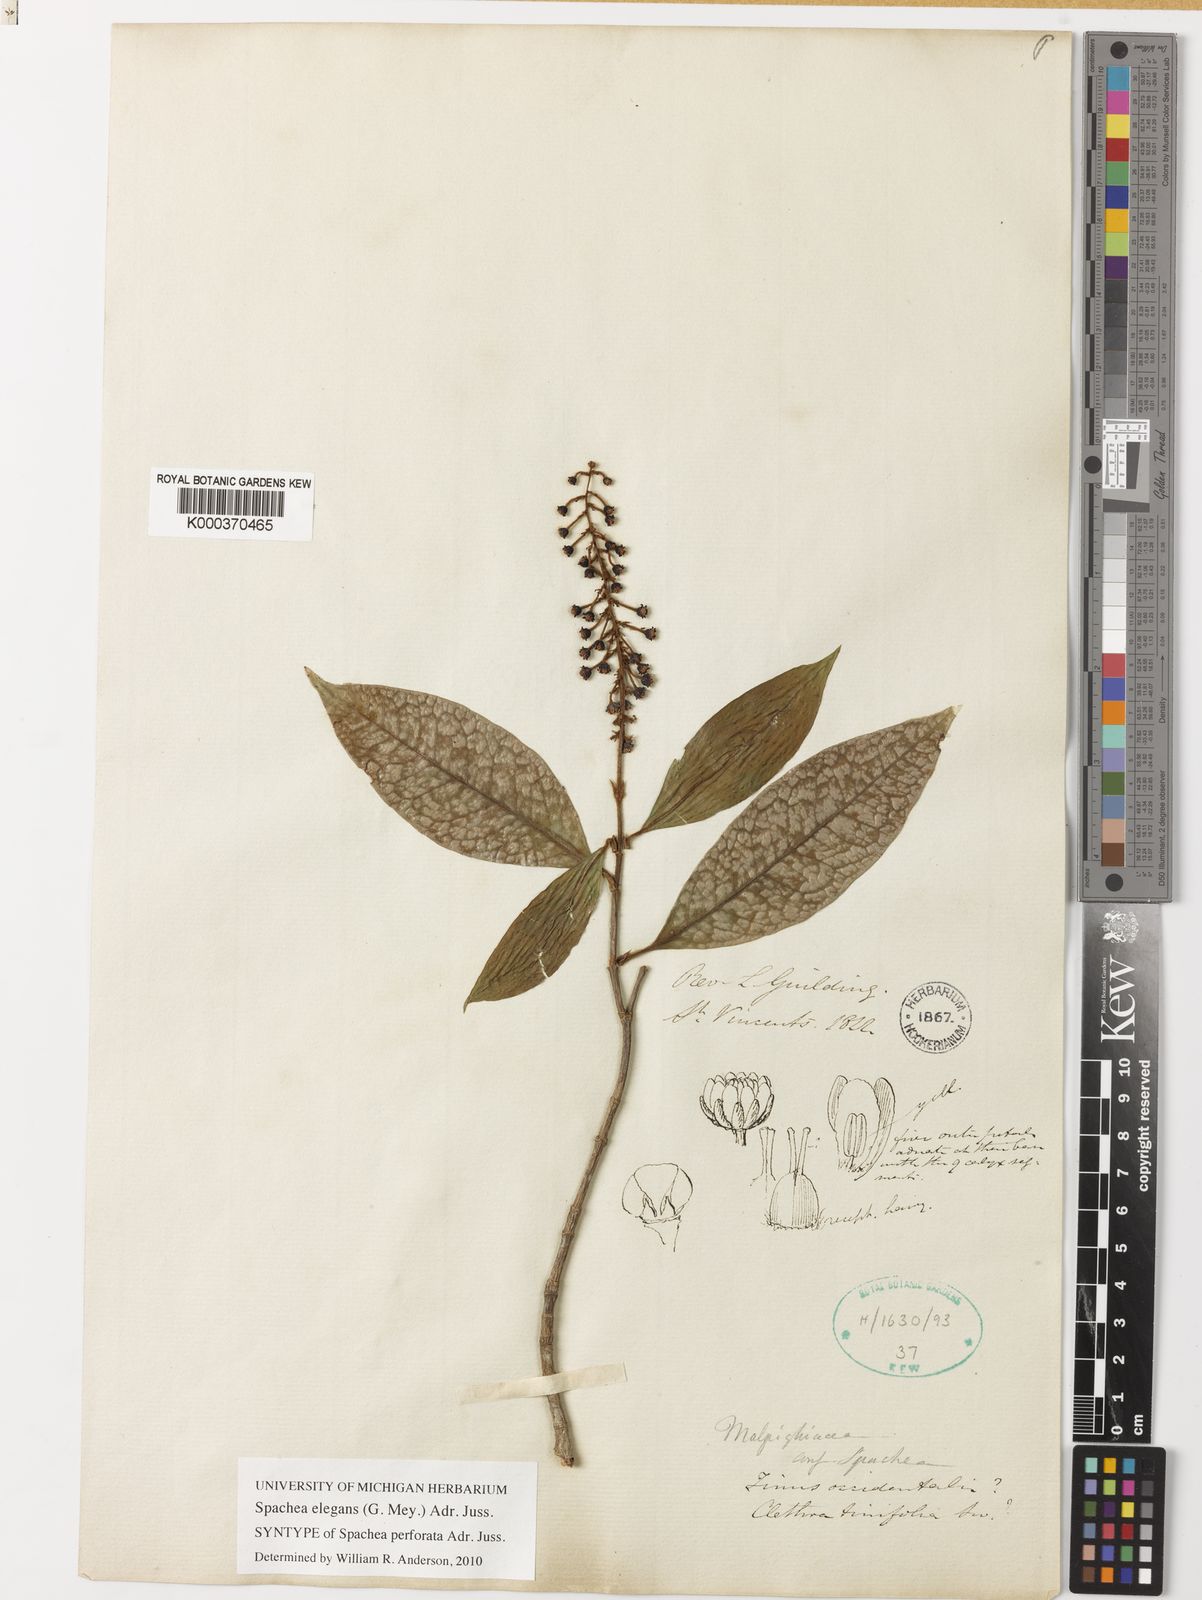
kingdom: Plantae
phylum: Tracheophyta
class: Magnoliopsida
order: Malpighiales
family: Malpighiaceae
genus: Spachea
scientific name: Spachea elegans
